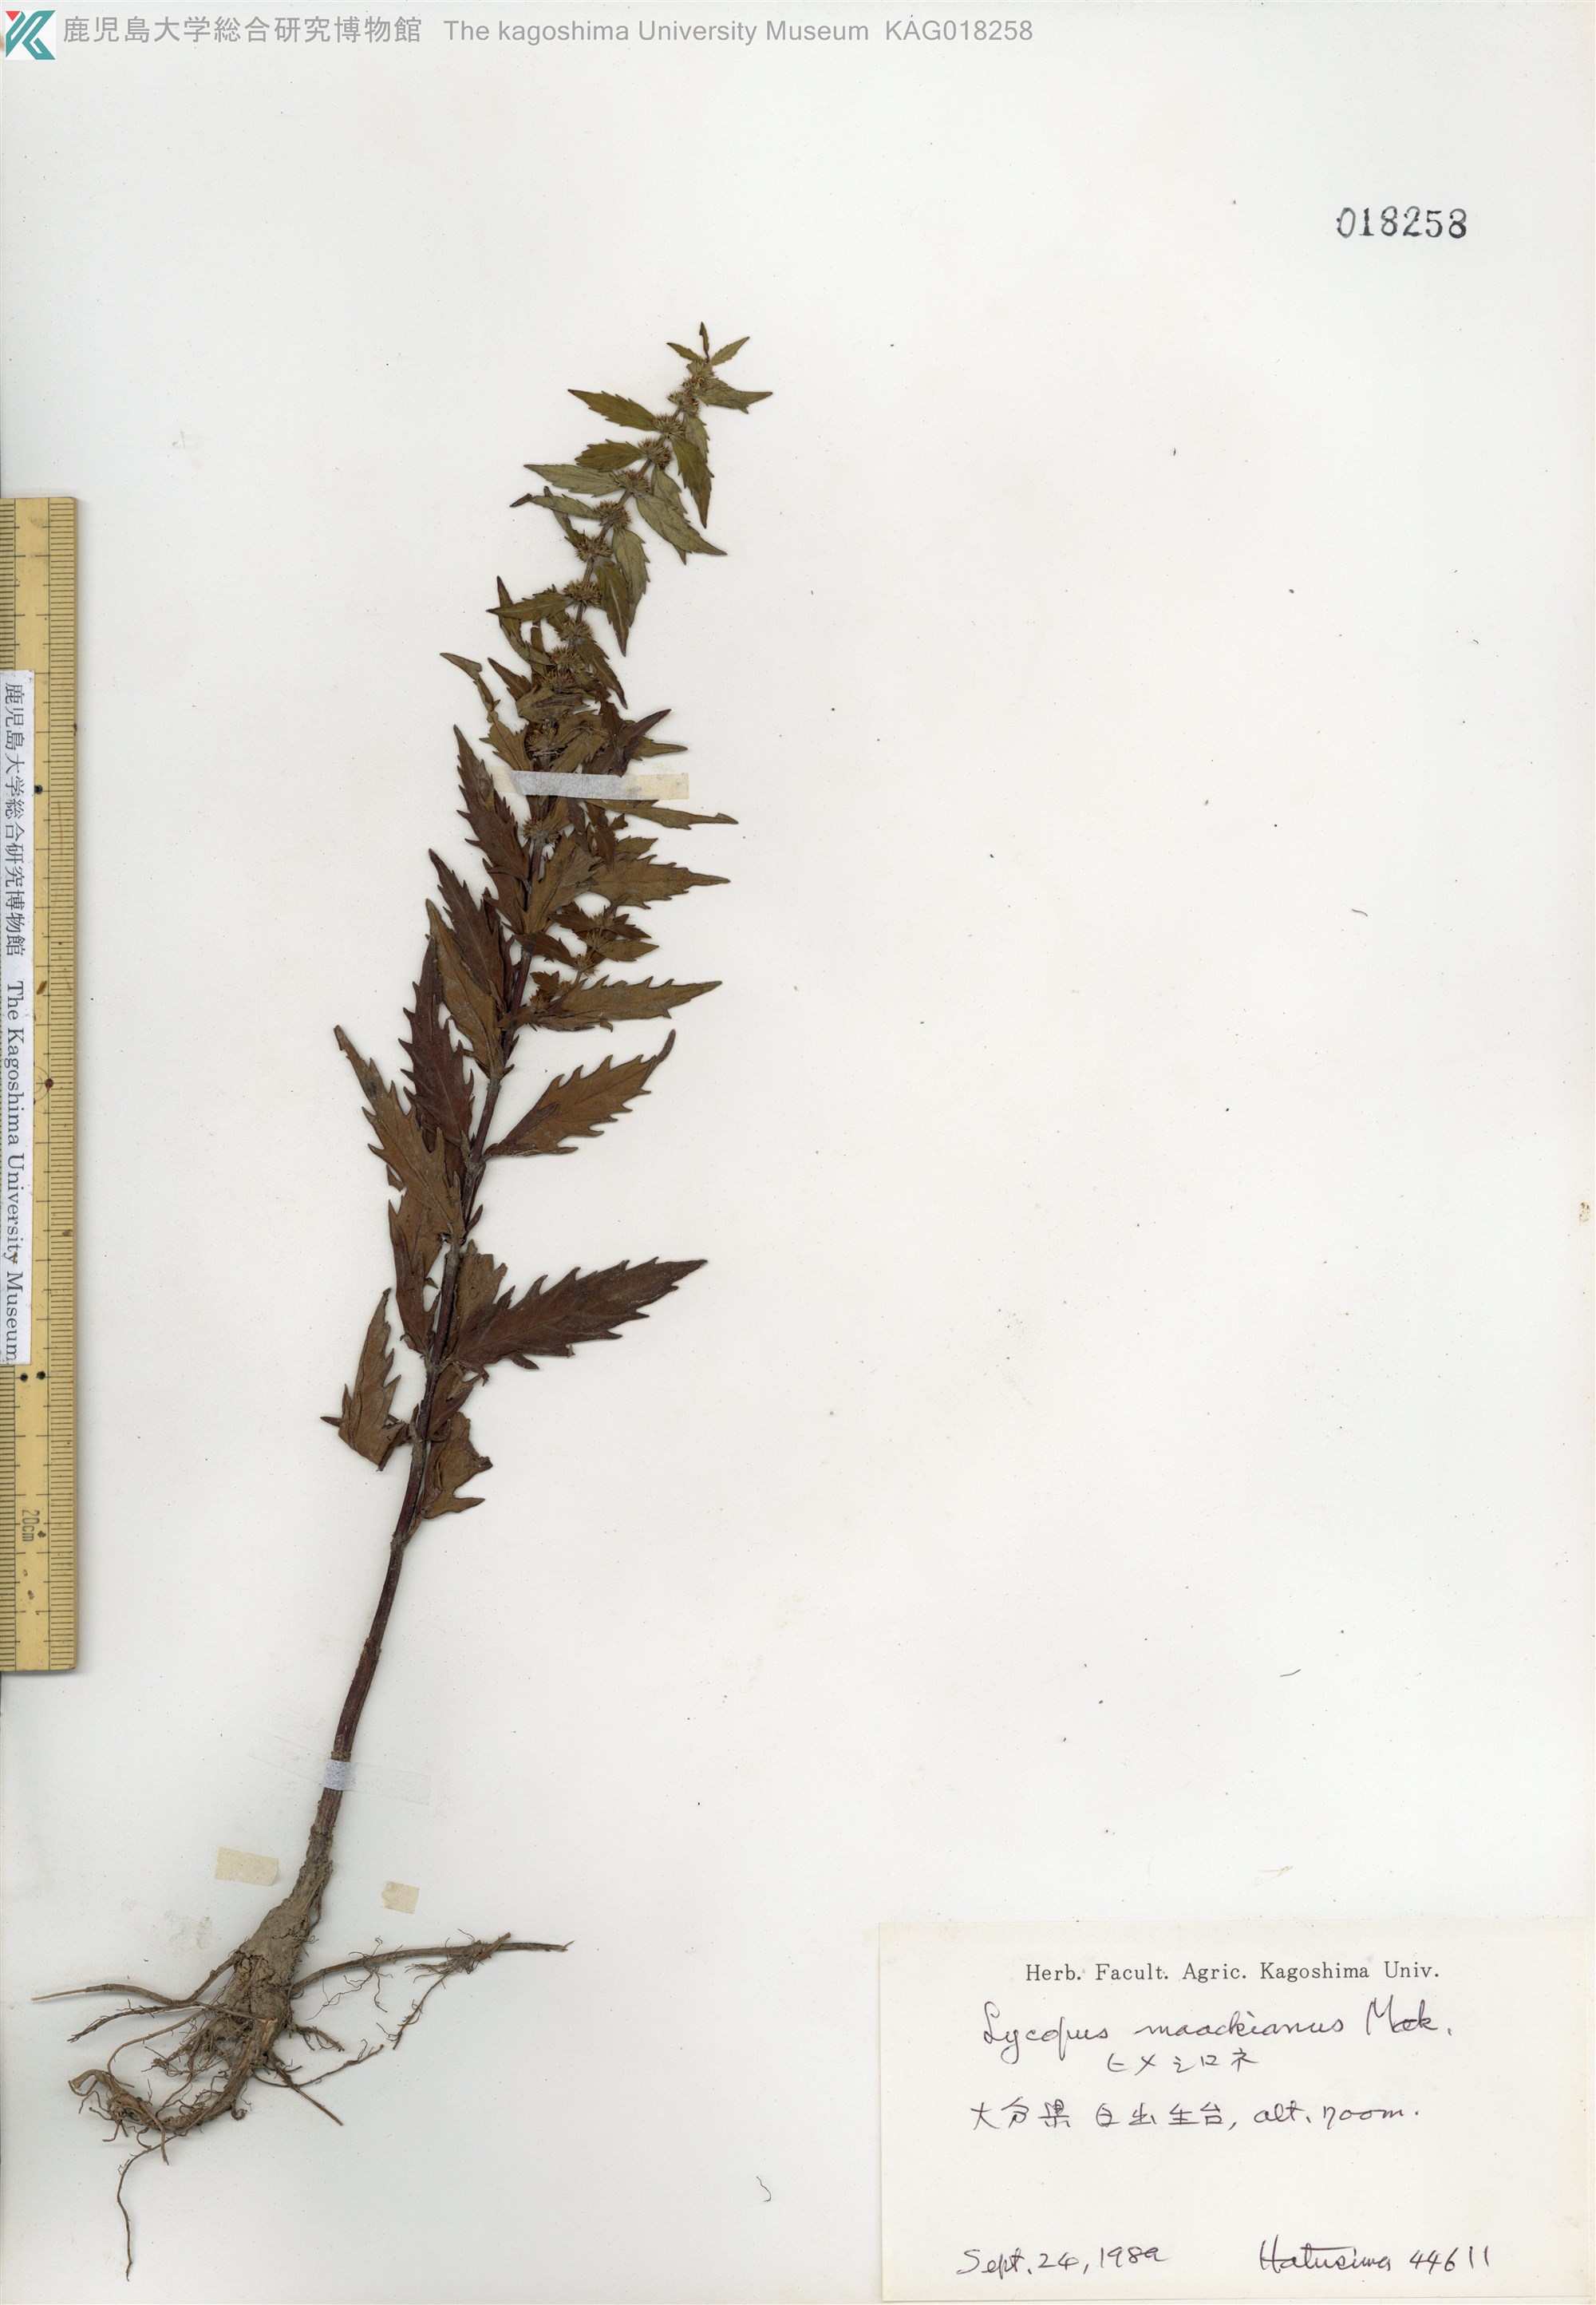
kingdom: Plantae
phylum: Tracheophyta
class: Magnoliopsida
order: Lamiales
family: Lamiaceae
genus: Lycopus
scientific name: Lycopus lucidus
